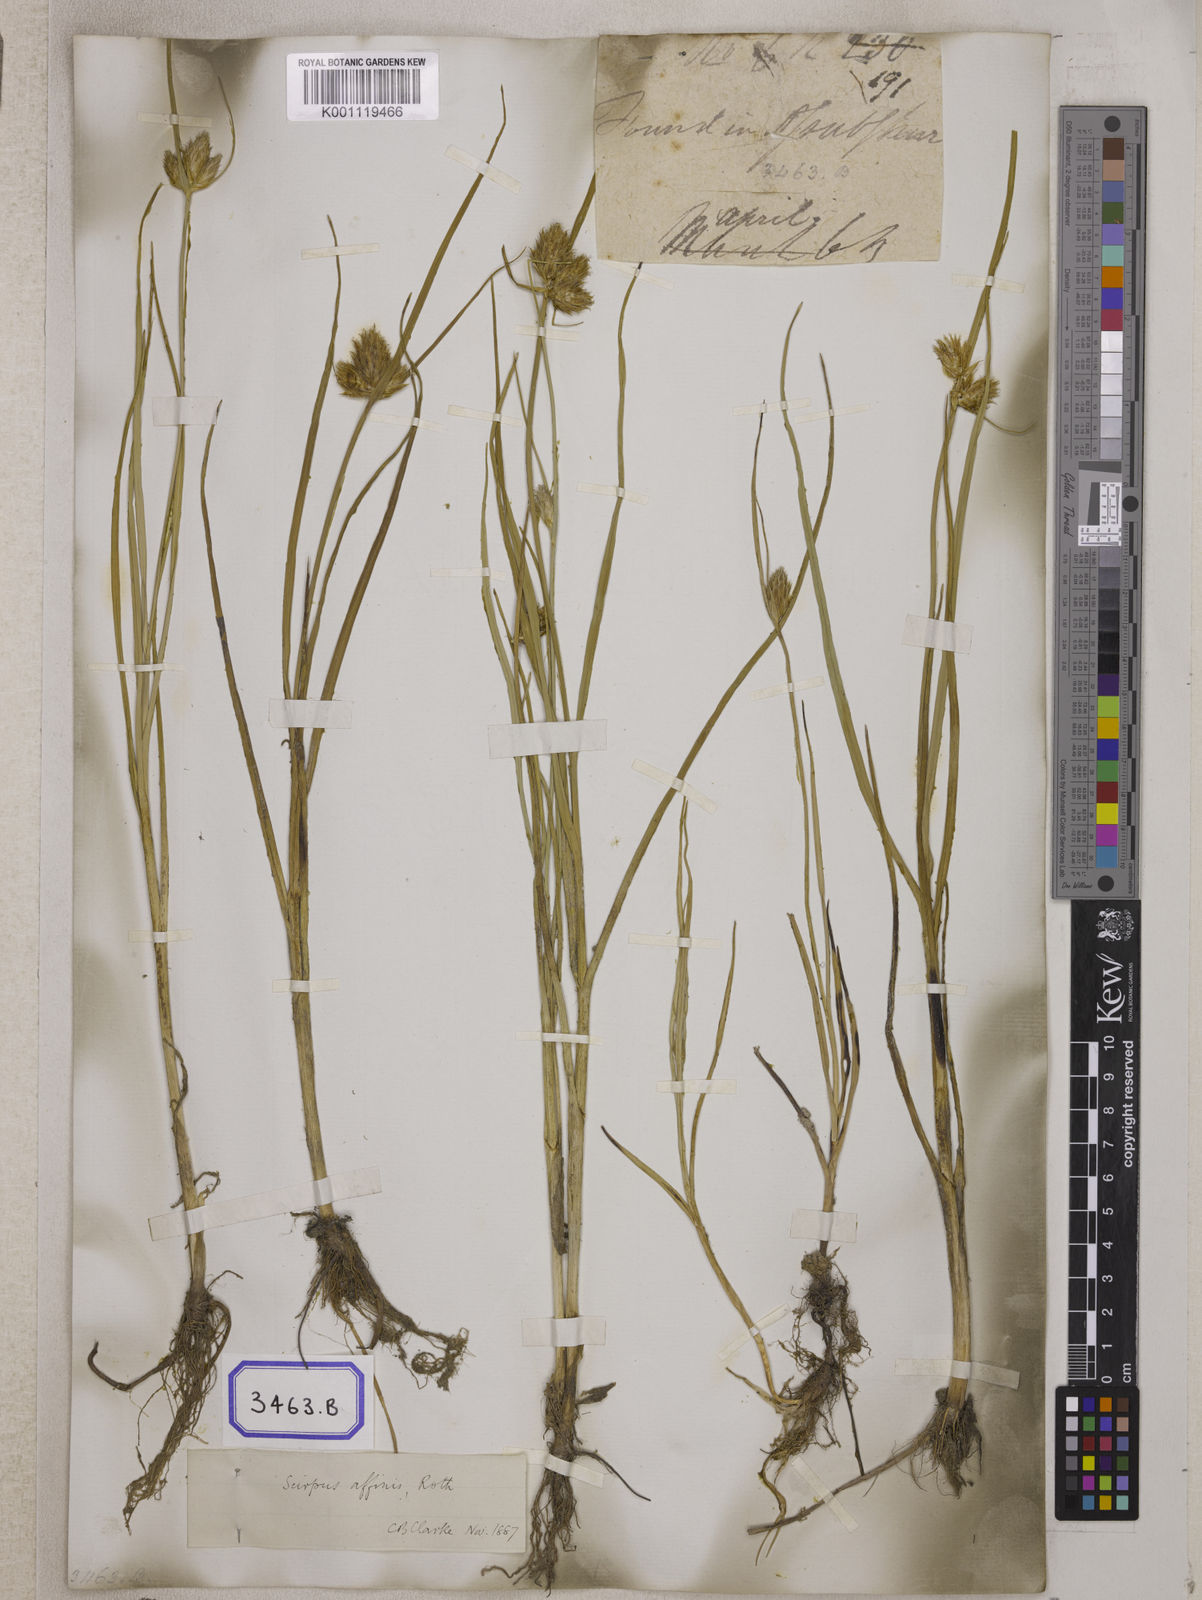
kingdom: Plantae
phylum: Tracheophyta
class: Liliopsida
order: Poales
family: Cyperaceae
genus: Scirpus
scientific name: Scirpus
